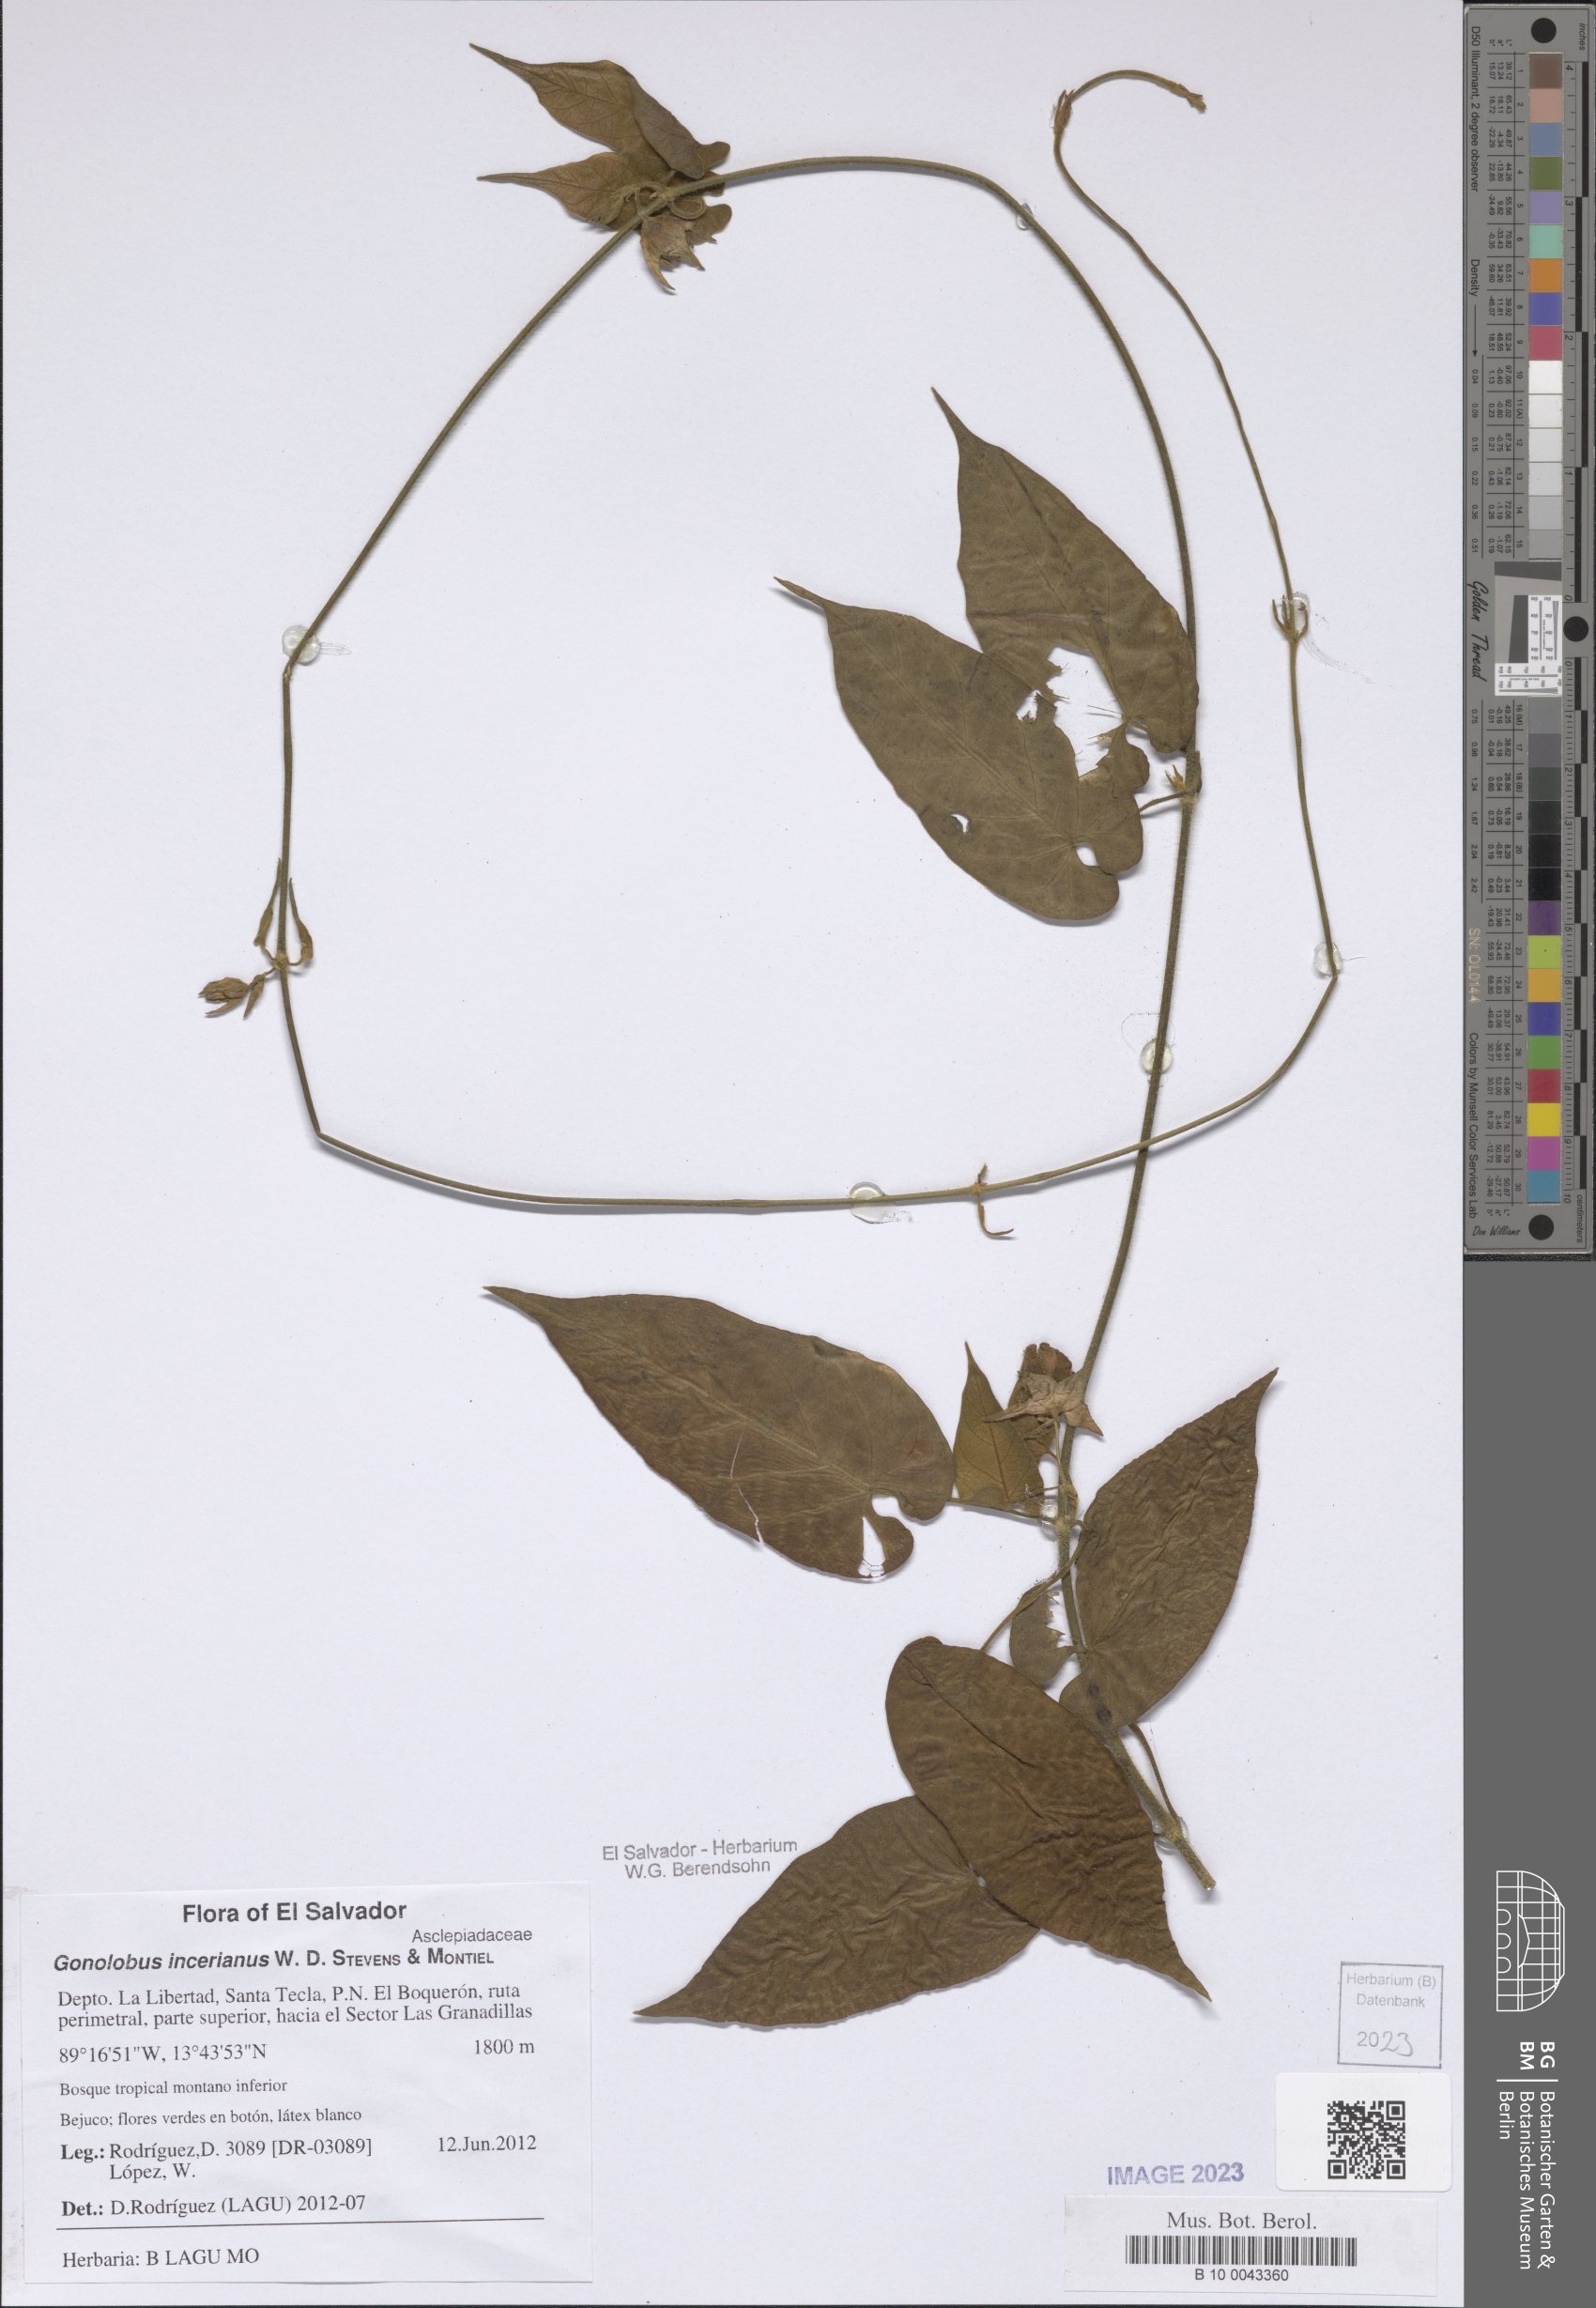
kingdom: Plantae
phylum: Tracheophyta
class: Magnoliopsida
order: Gentianales
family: Apocynaceae
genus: Gonolobus
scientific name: Gonolobus incerianus
